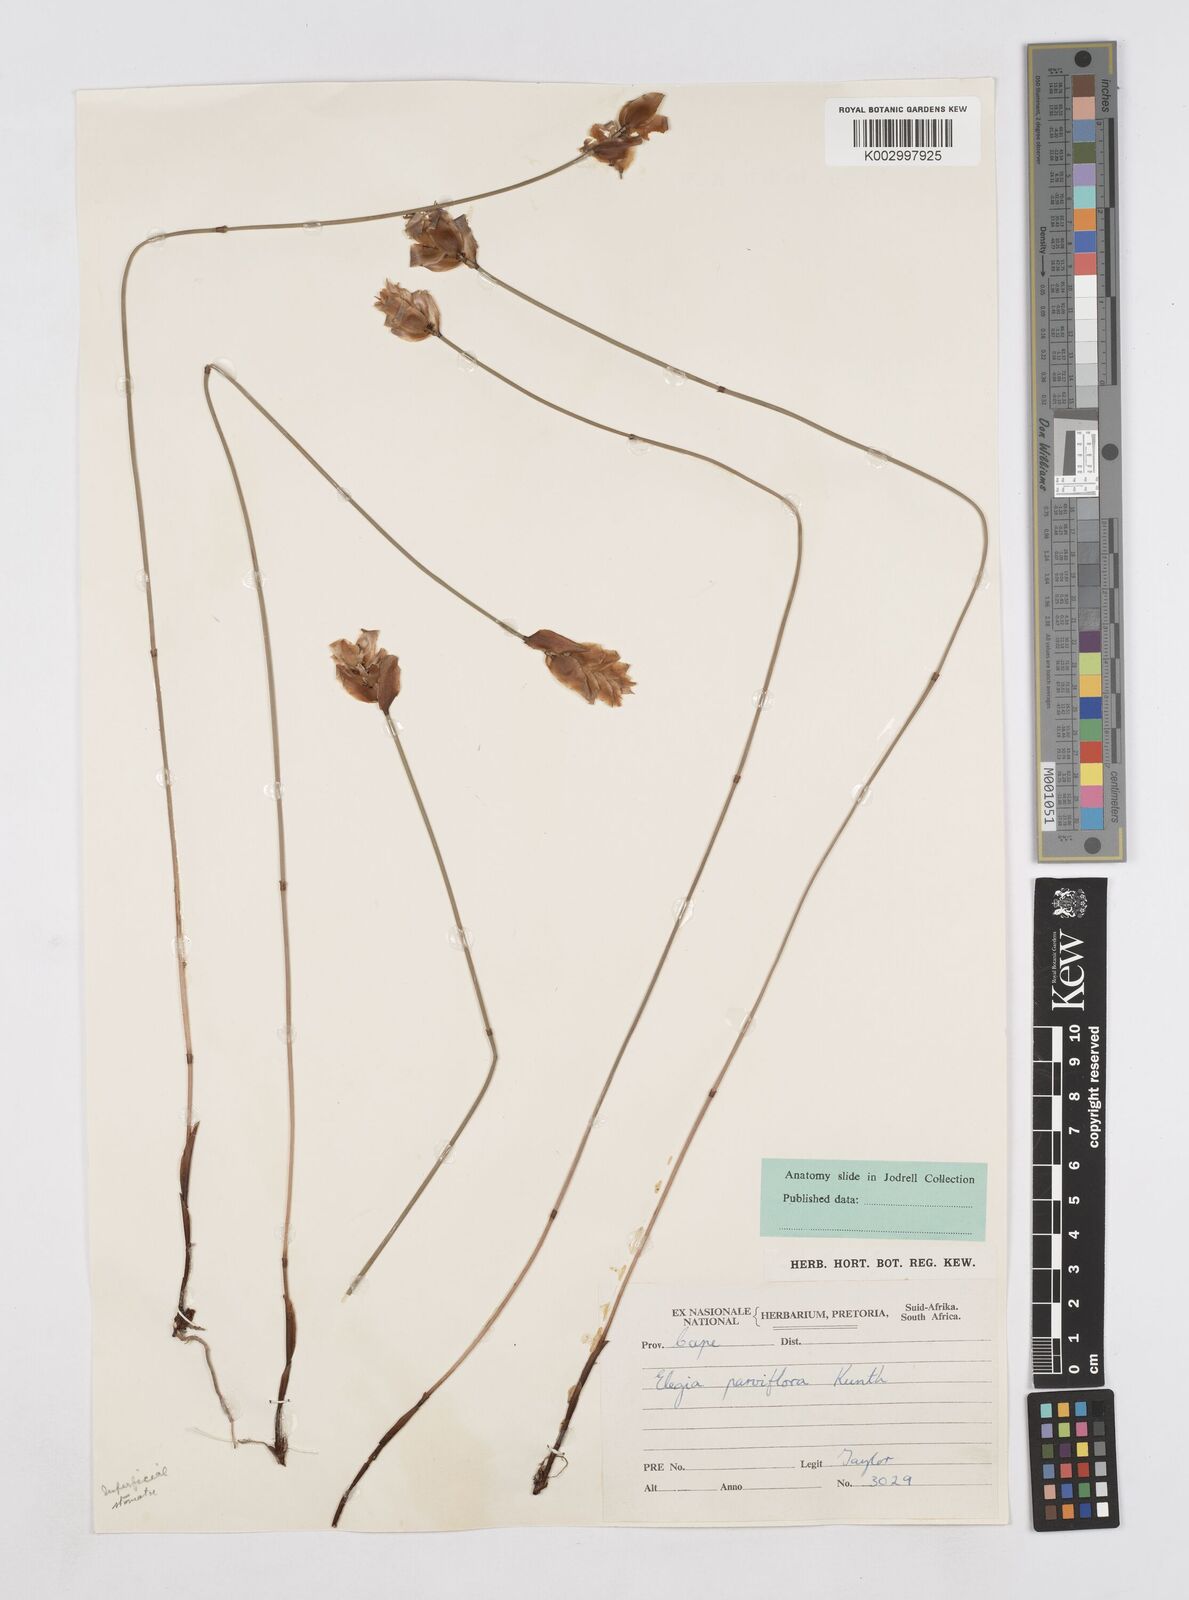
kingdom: Plantae
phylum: Tracheophyta
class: Liliopsida
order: Poales
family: Restionaceae
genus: Elegia
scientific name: Elegia spathacea
